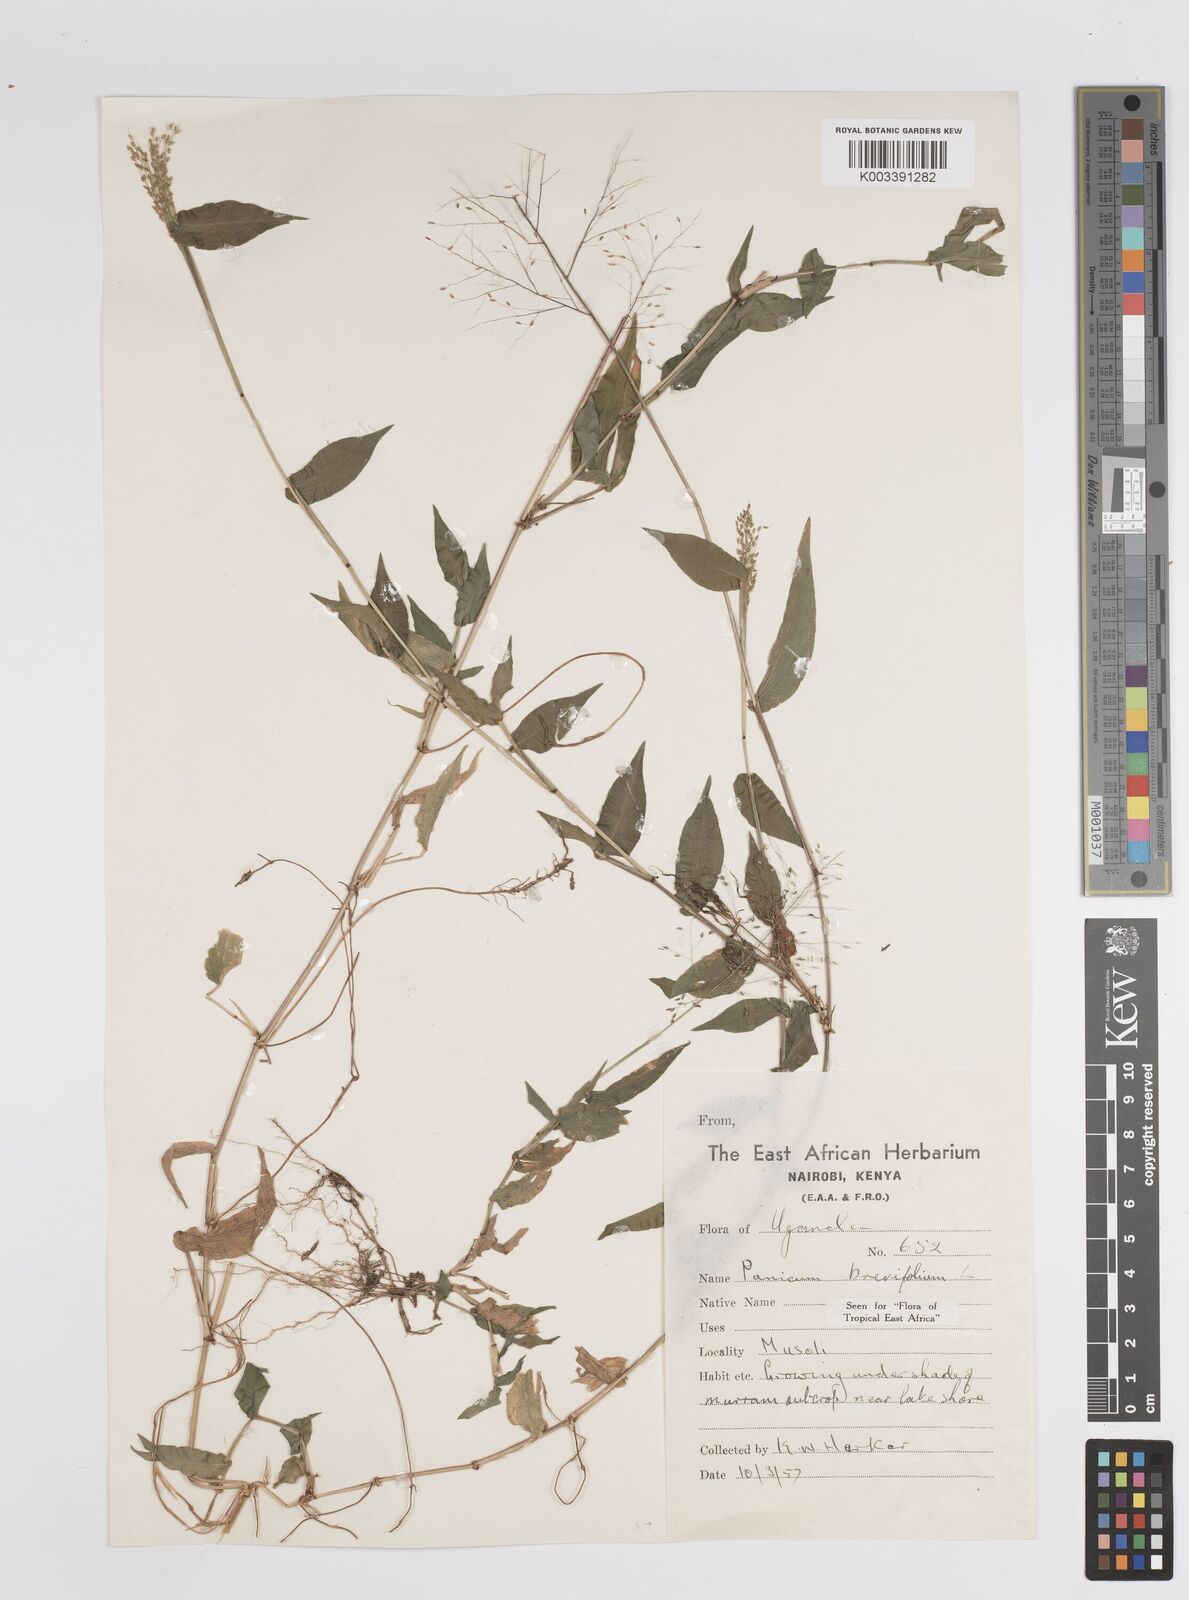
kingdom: Plantae
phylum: Tracheophyta
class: Liliopsida
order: Poales
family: Poaceae
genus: Panicum
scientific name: Panicum brevifolium
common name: Shortleaf panic grass
